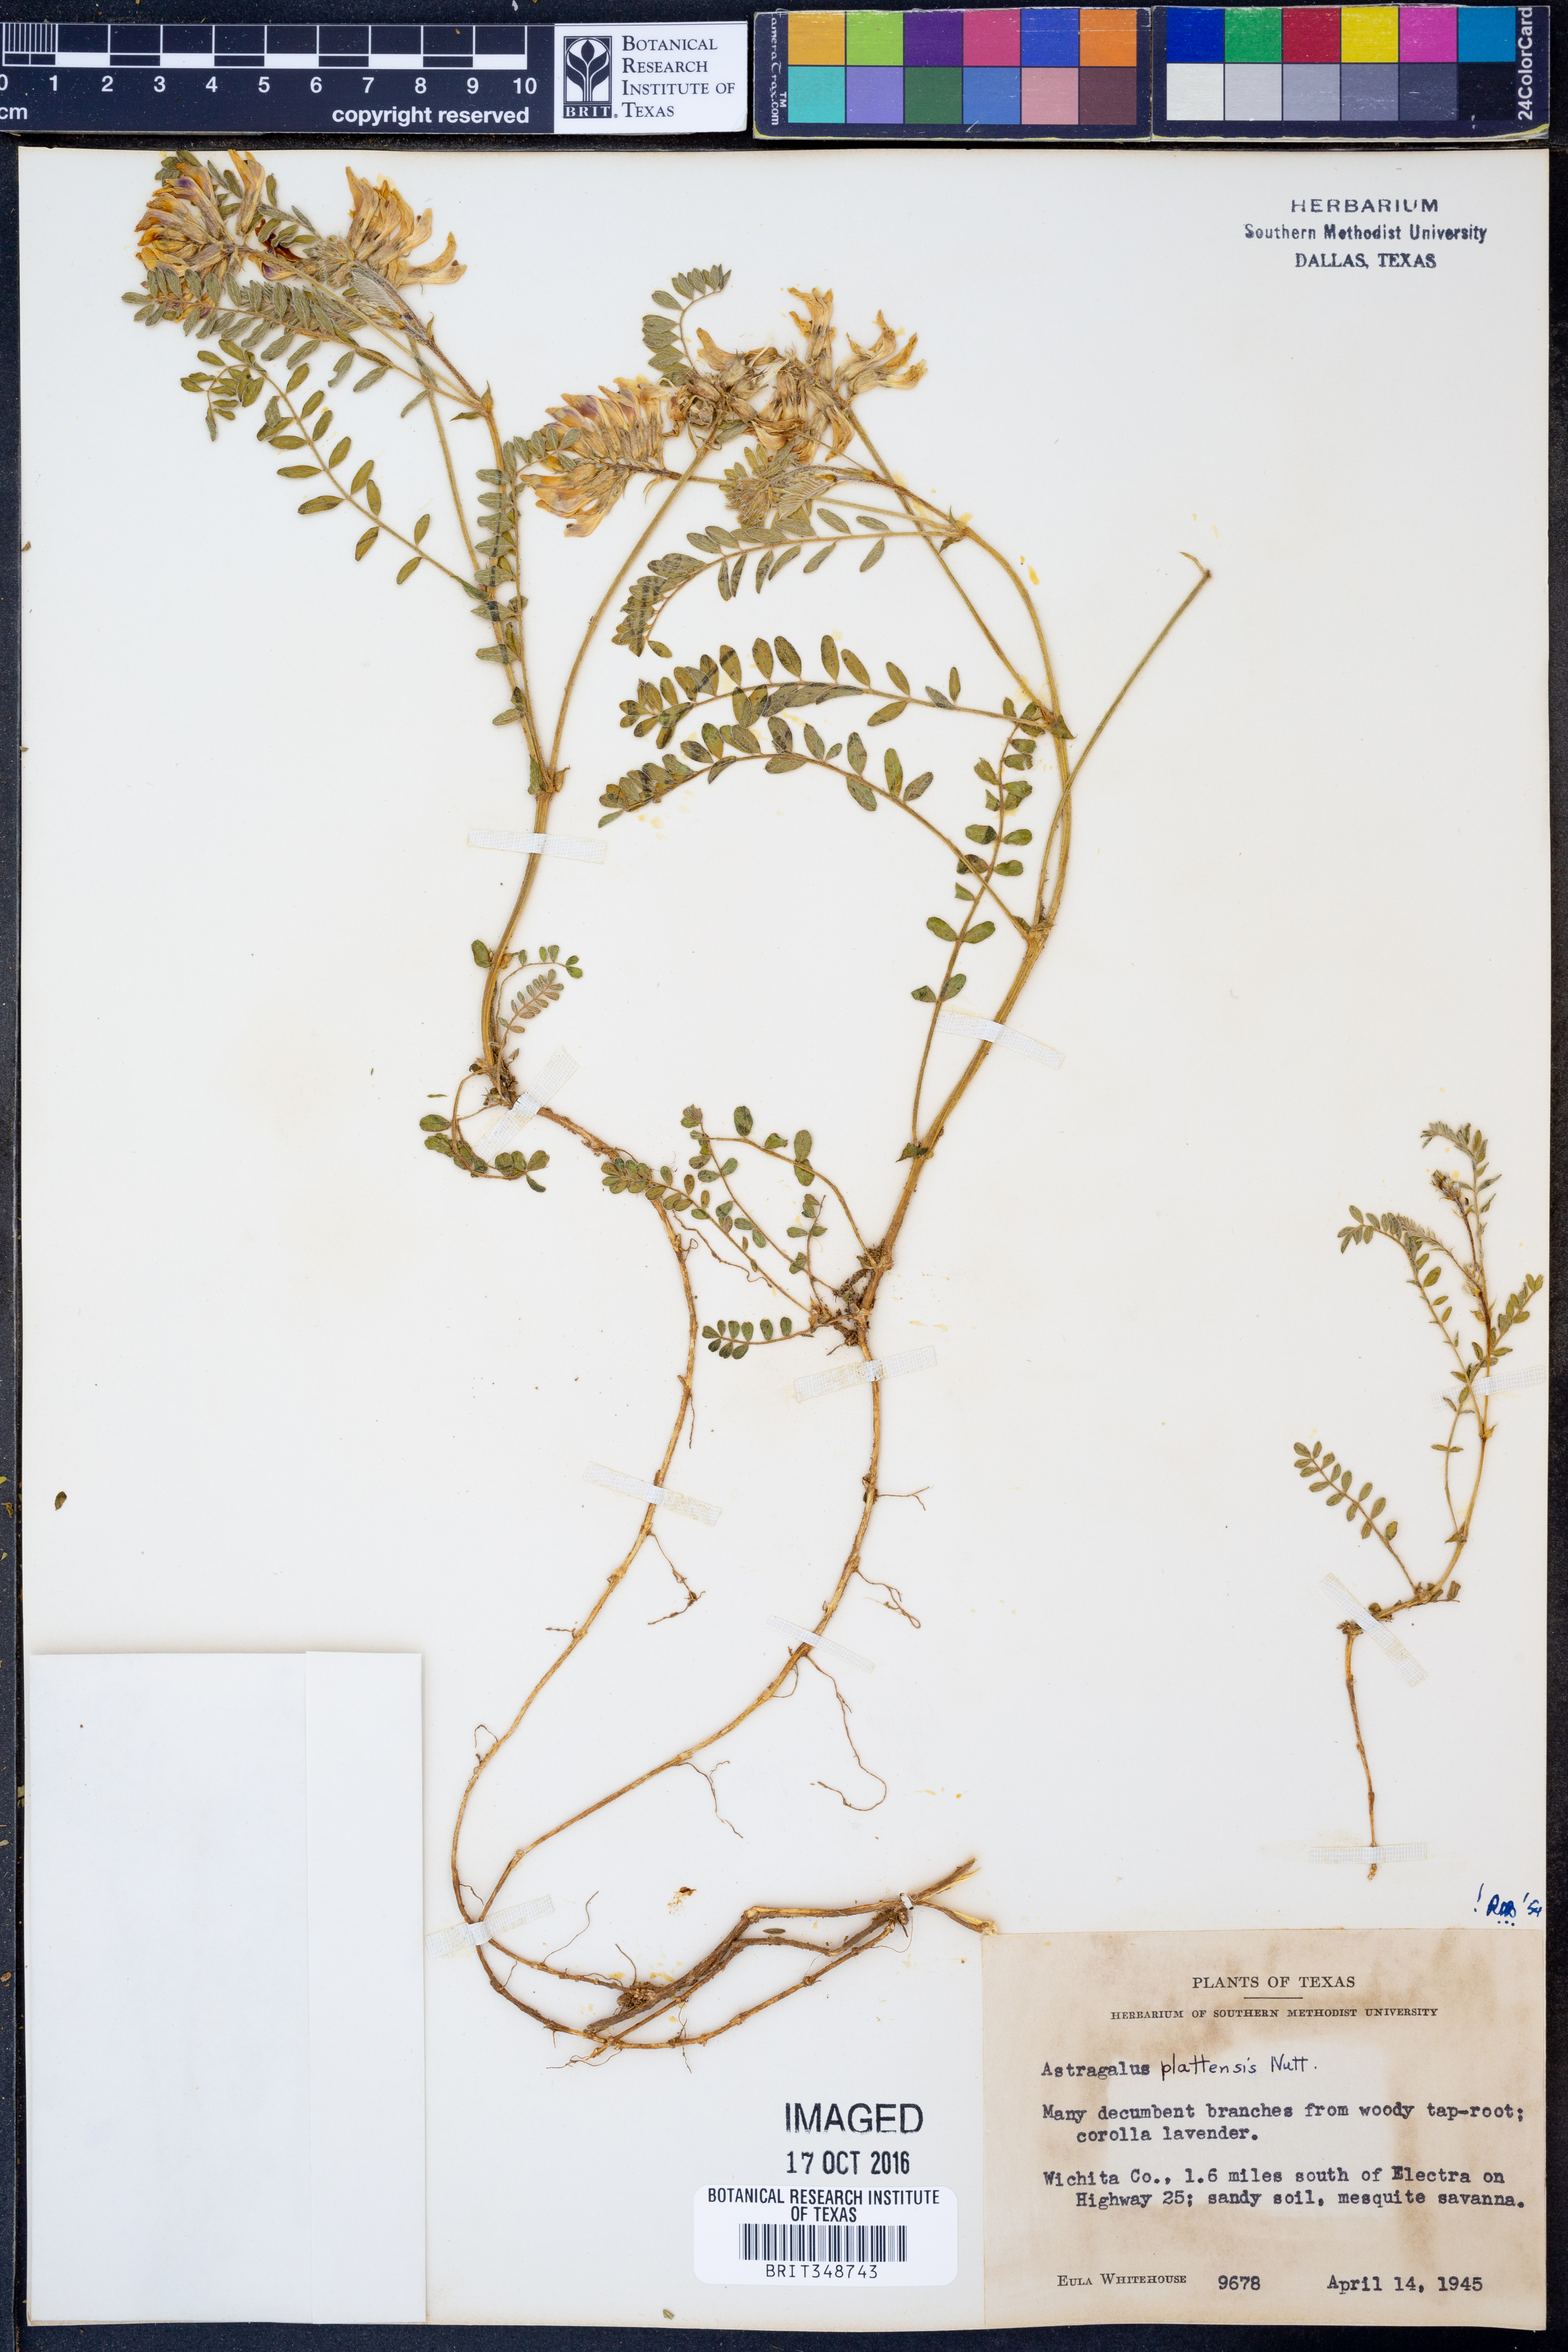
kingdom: Plantae
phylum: Tracheophyta
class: Magnoliopsida
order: Fabales
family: Fabaceae
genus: Astragalus
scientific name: Astragalus plattensis
